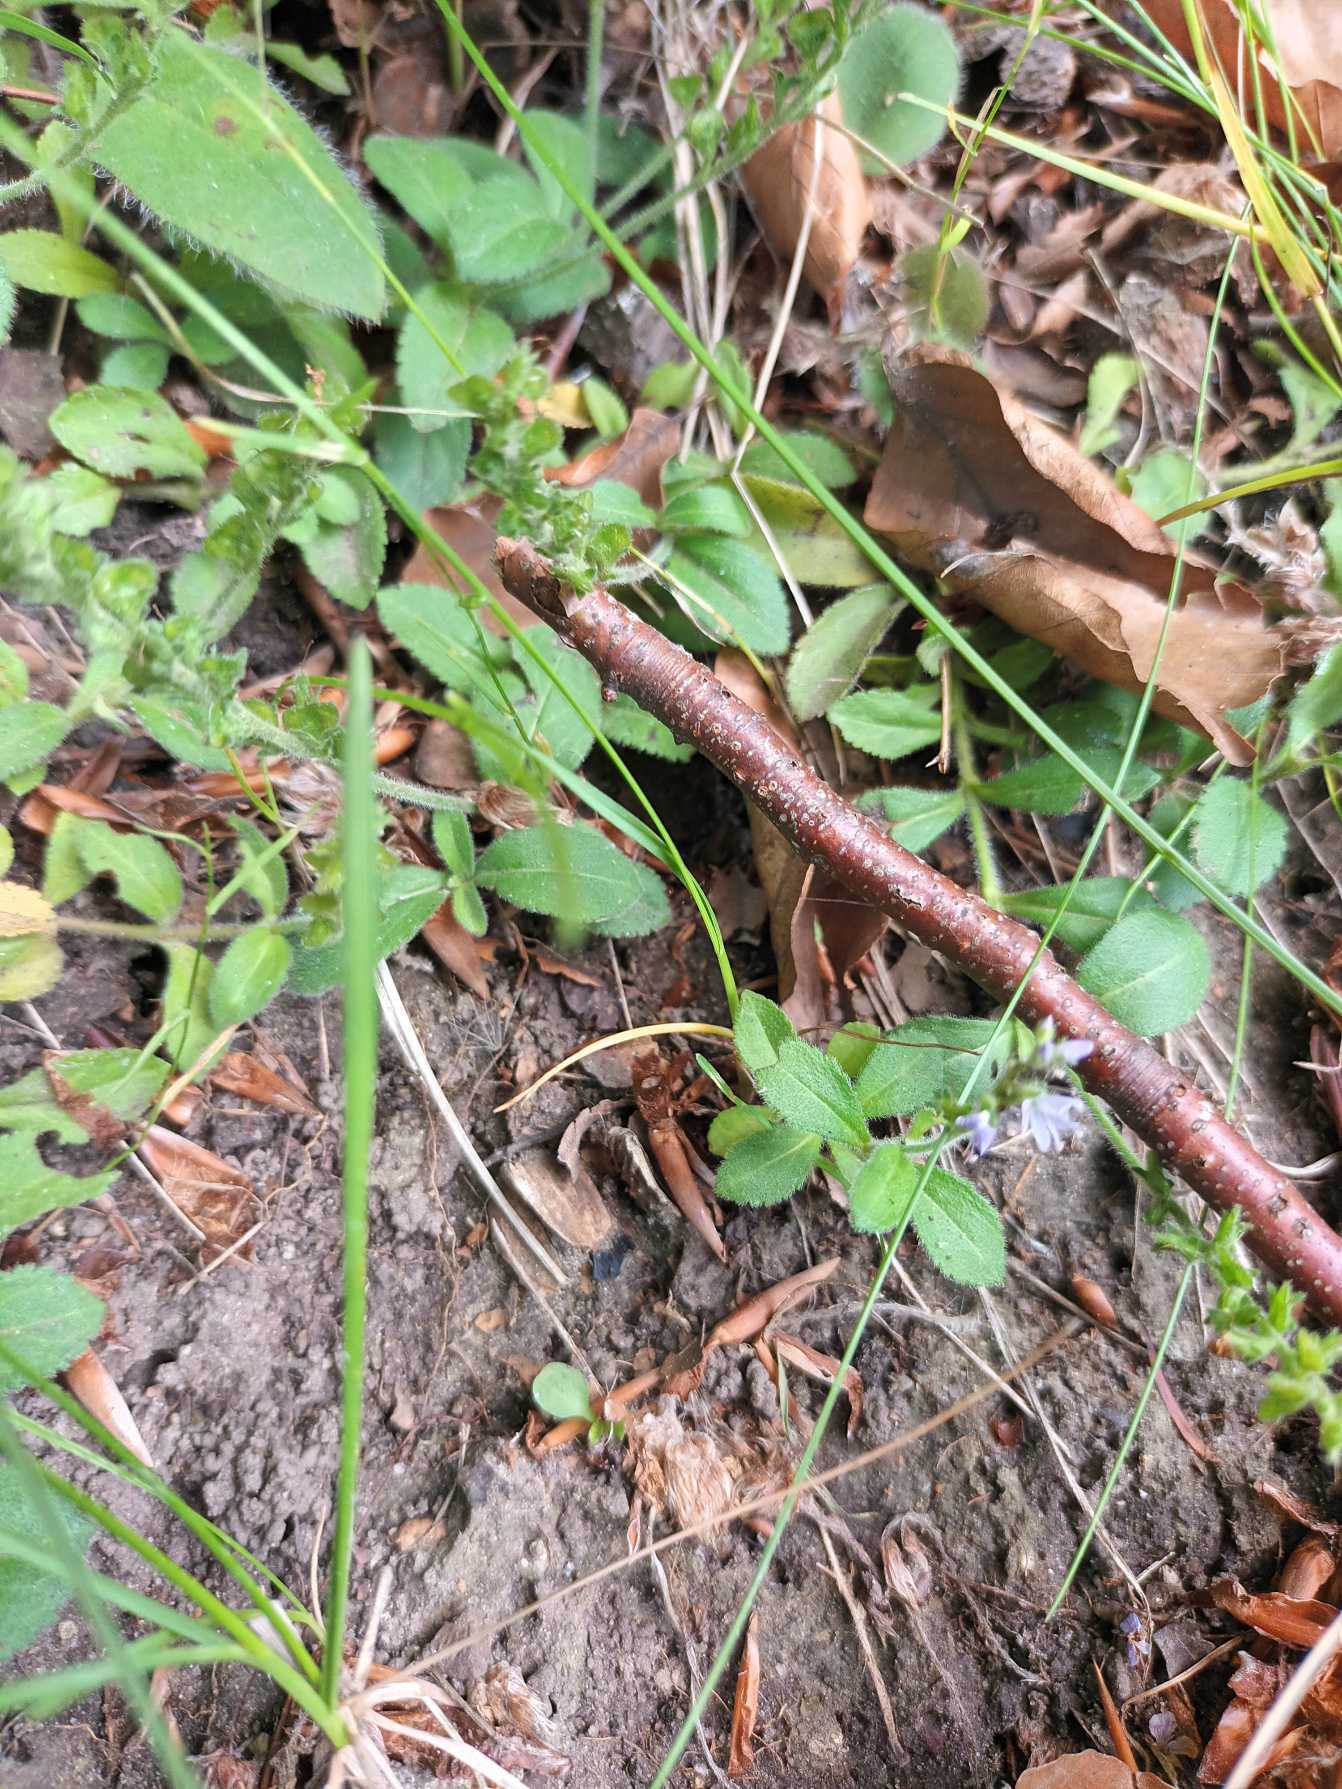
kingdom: Plantae
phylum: Tracheophyta
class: Magnoliopsida
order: Lamiales
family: Plantaginaceae
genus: Veronica
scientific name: Veronica officinalis
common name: Læge-ærenpris
